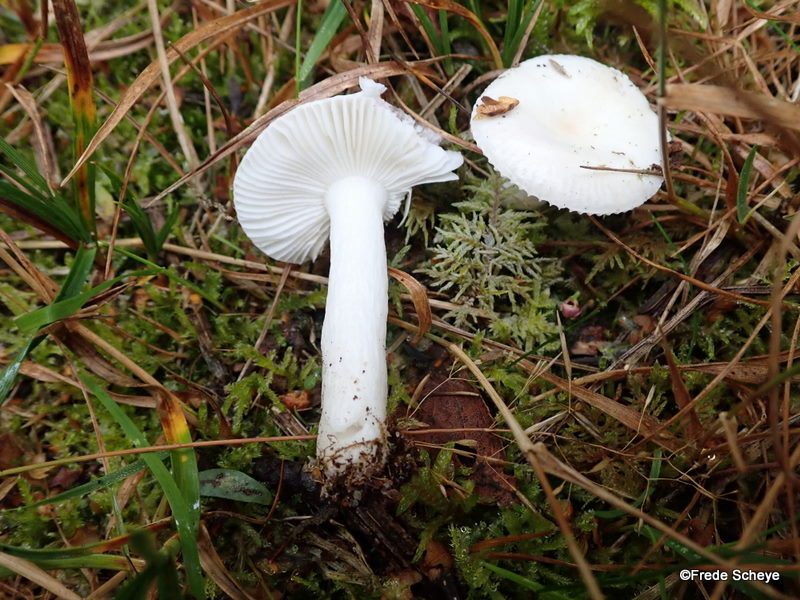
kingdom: Fungi
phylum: Basidiomycota
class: Agaricomycetes
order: Russulales
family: Russulaceae
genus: Russula
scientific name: Russula betularum
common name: bleg gift-skørhat
